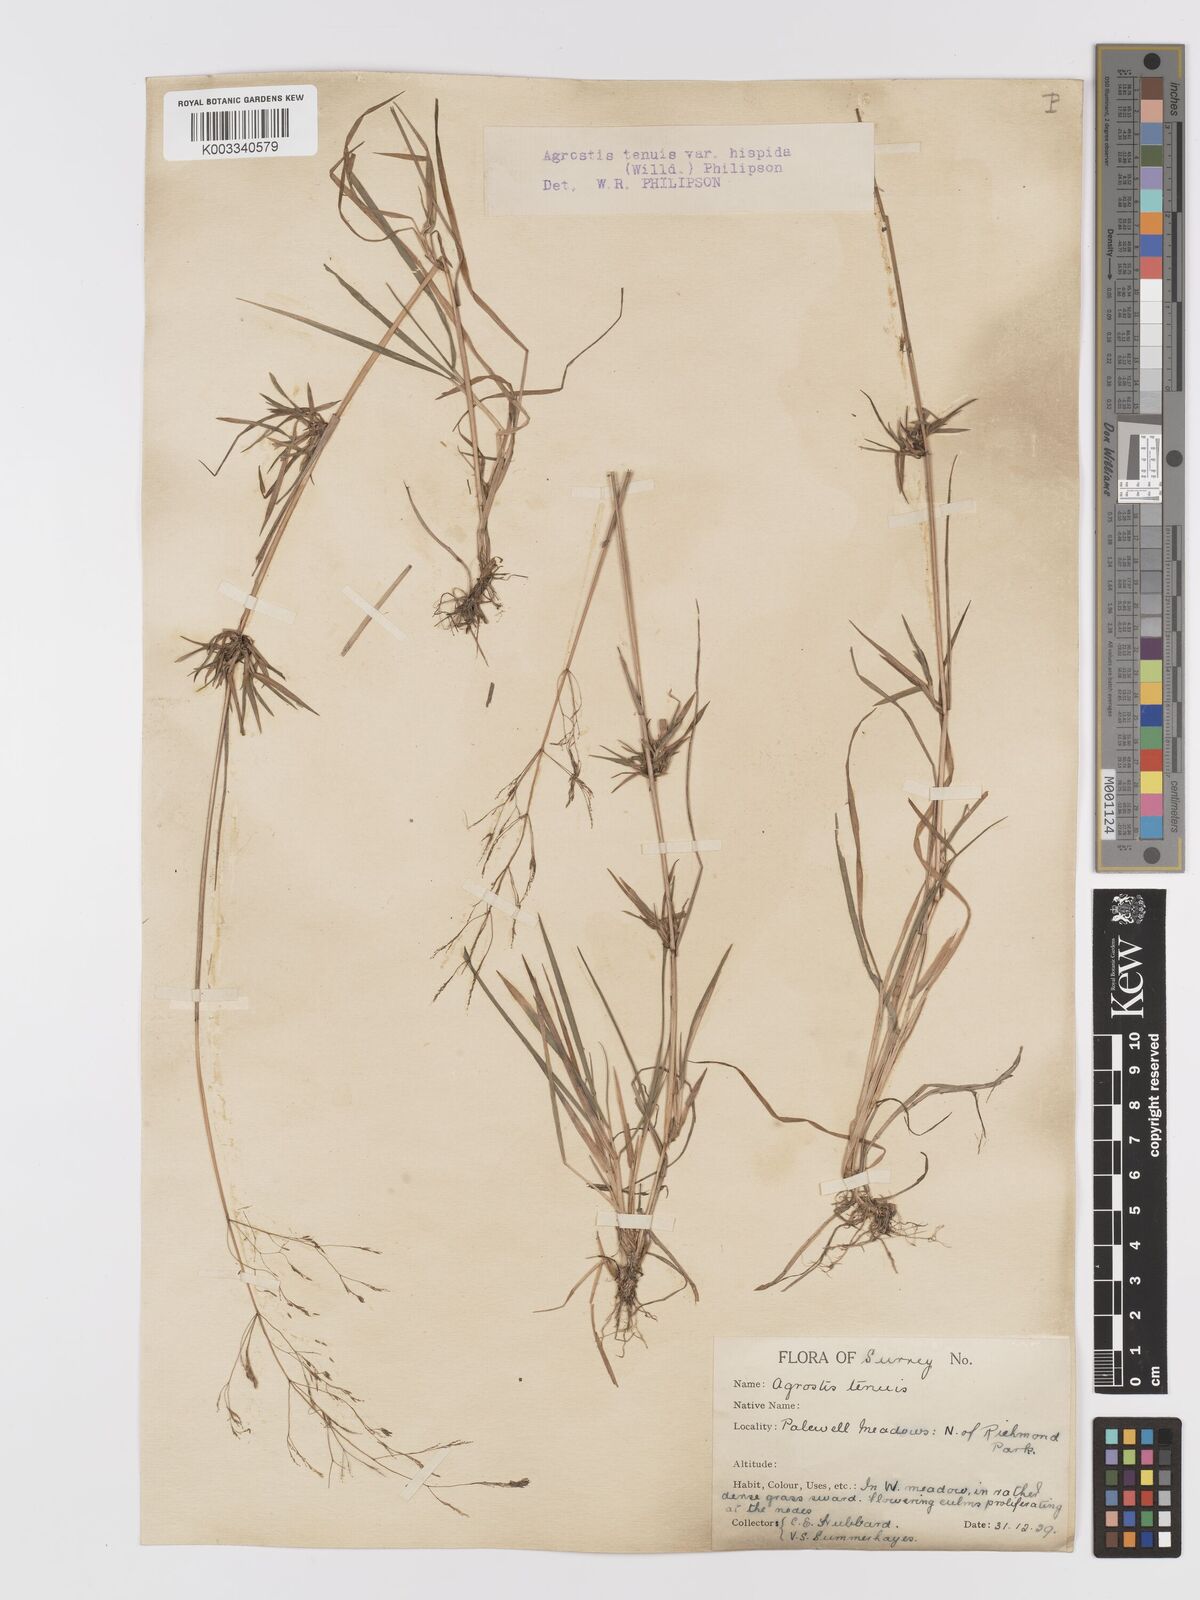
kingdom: Plantae
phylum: Tracheophyta
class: Liliopsida
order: Poales
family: Poaceae
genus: Agrostis
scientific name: Agrostis capillaris
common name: Colonial bentgrass
